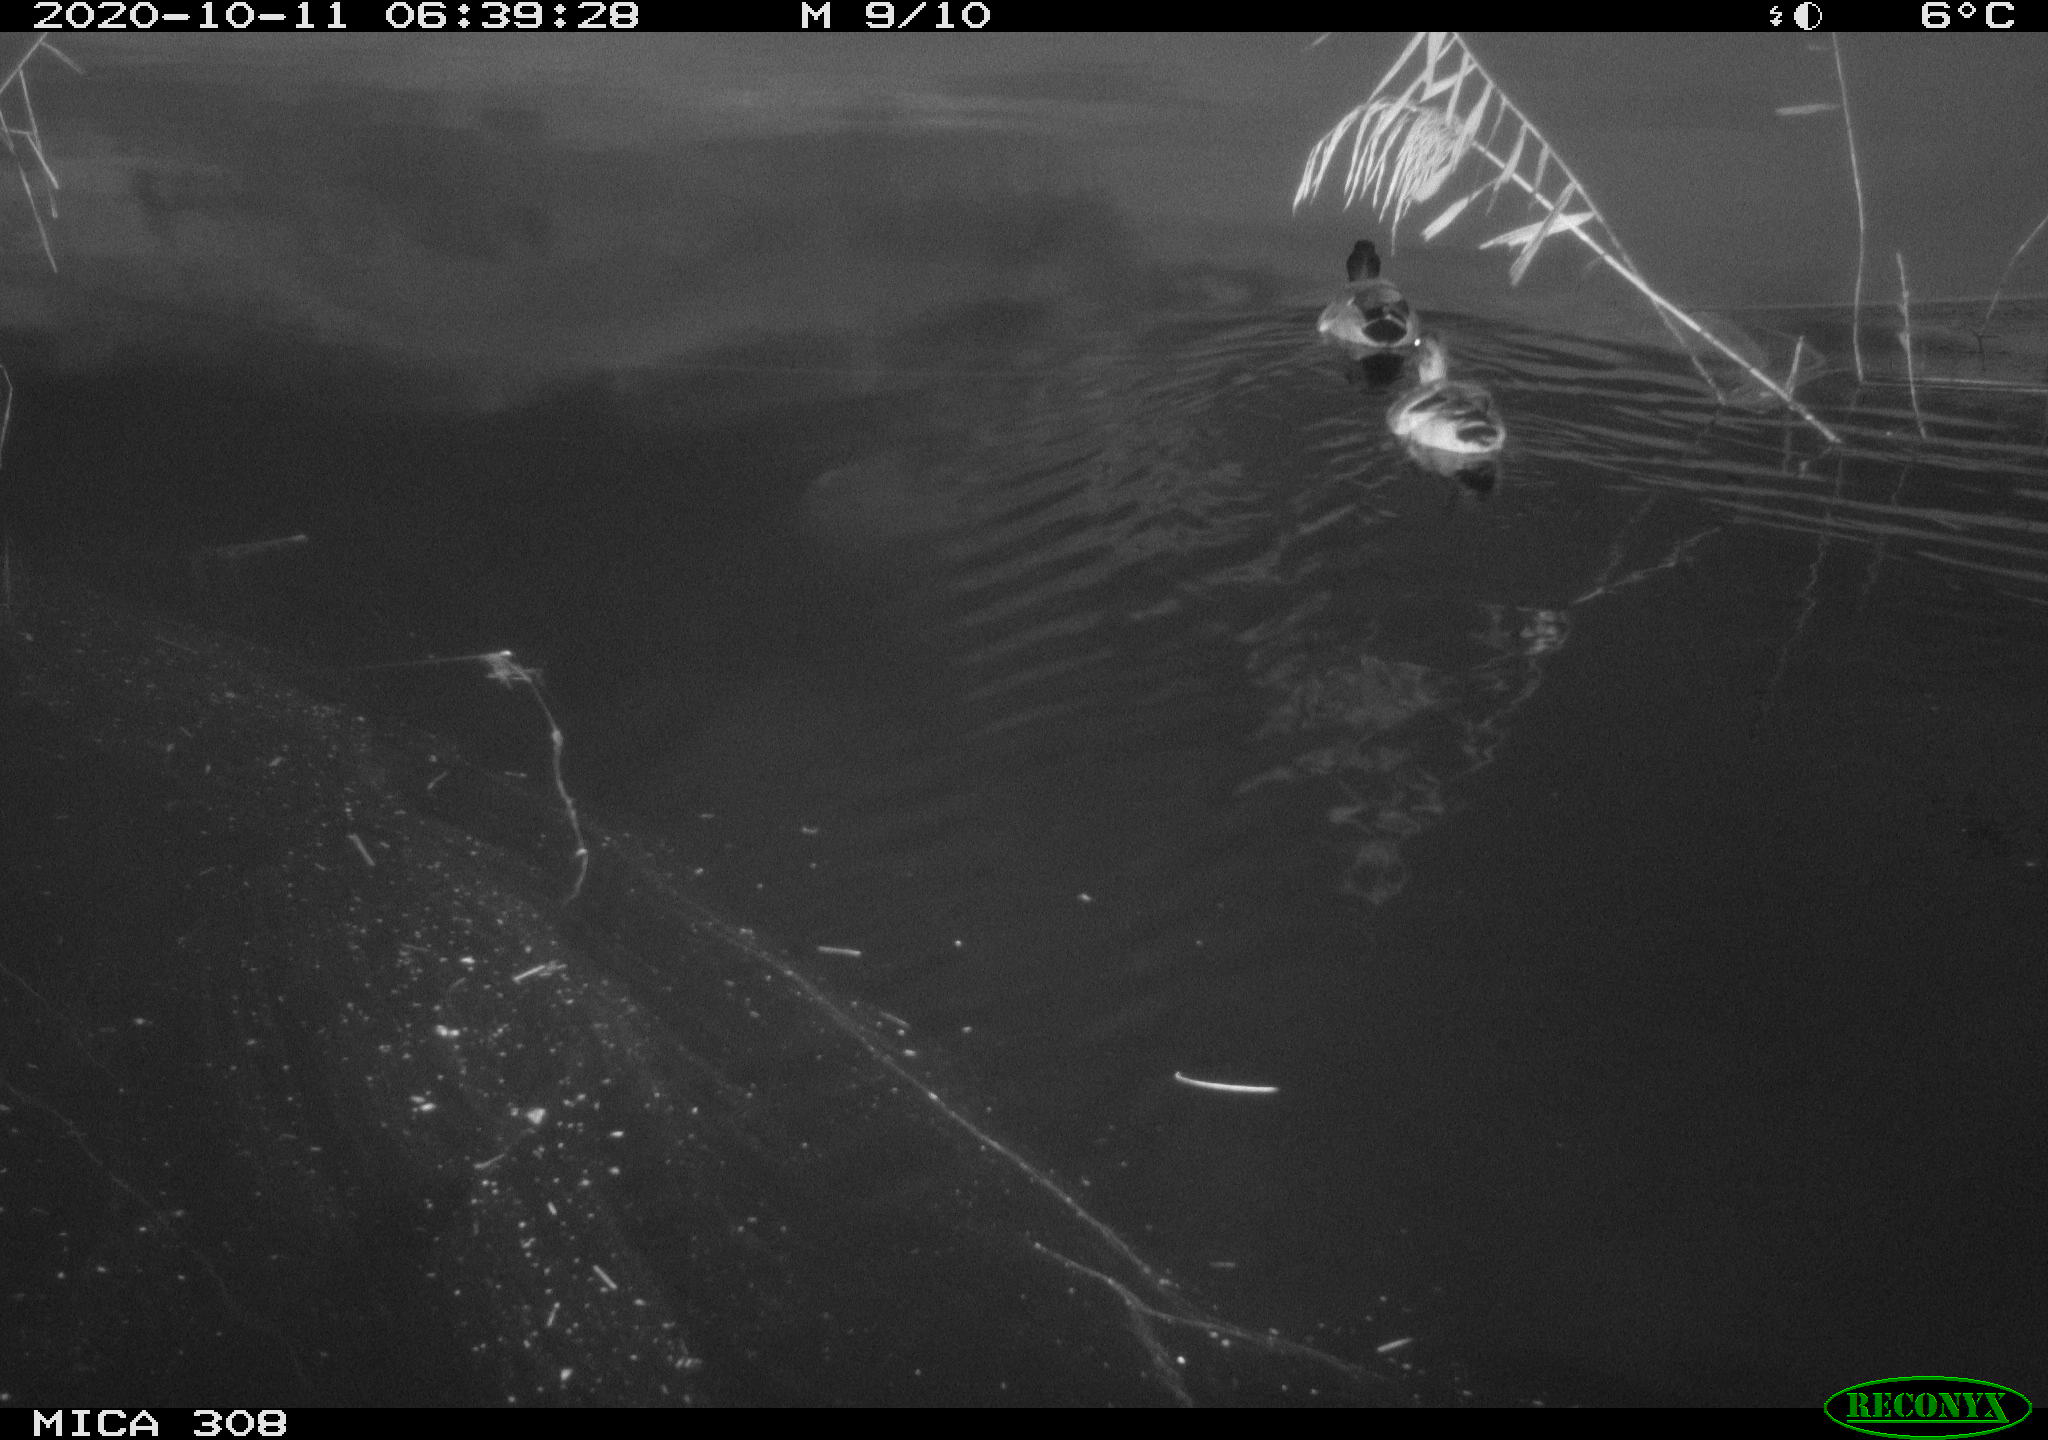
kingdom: Animalia
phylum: Chordata
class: Aves
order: Anseriformes
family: Anatidae
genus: Anas
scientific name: Anas platyrhynchos
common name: Mallard
